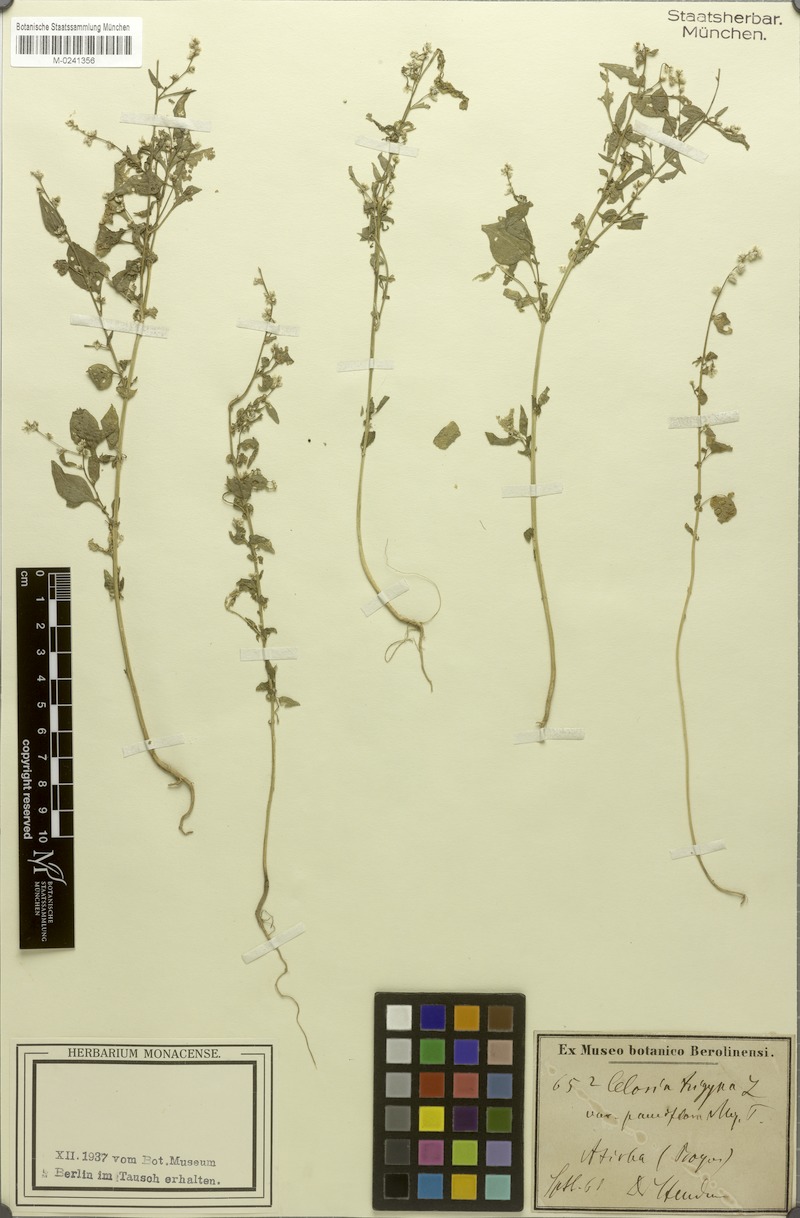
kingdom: Plantae
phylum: Tracheophyta
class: Magnoliopsida
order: Caryophyllales
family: Amaranthaceae
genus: Celosia
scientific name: Celosia trigyna
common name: Woolflower
